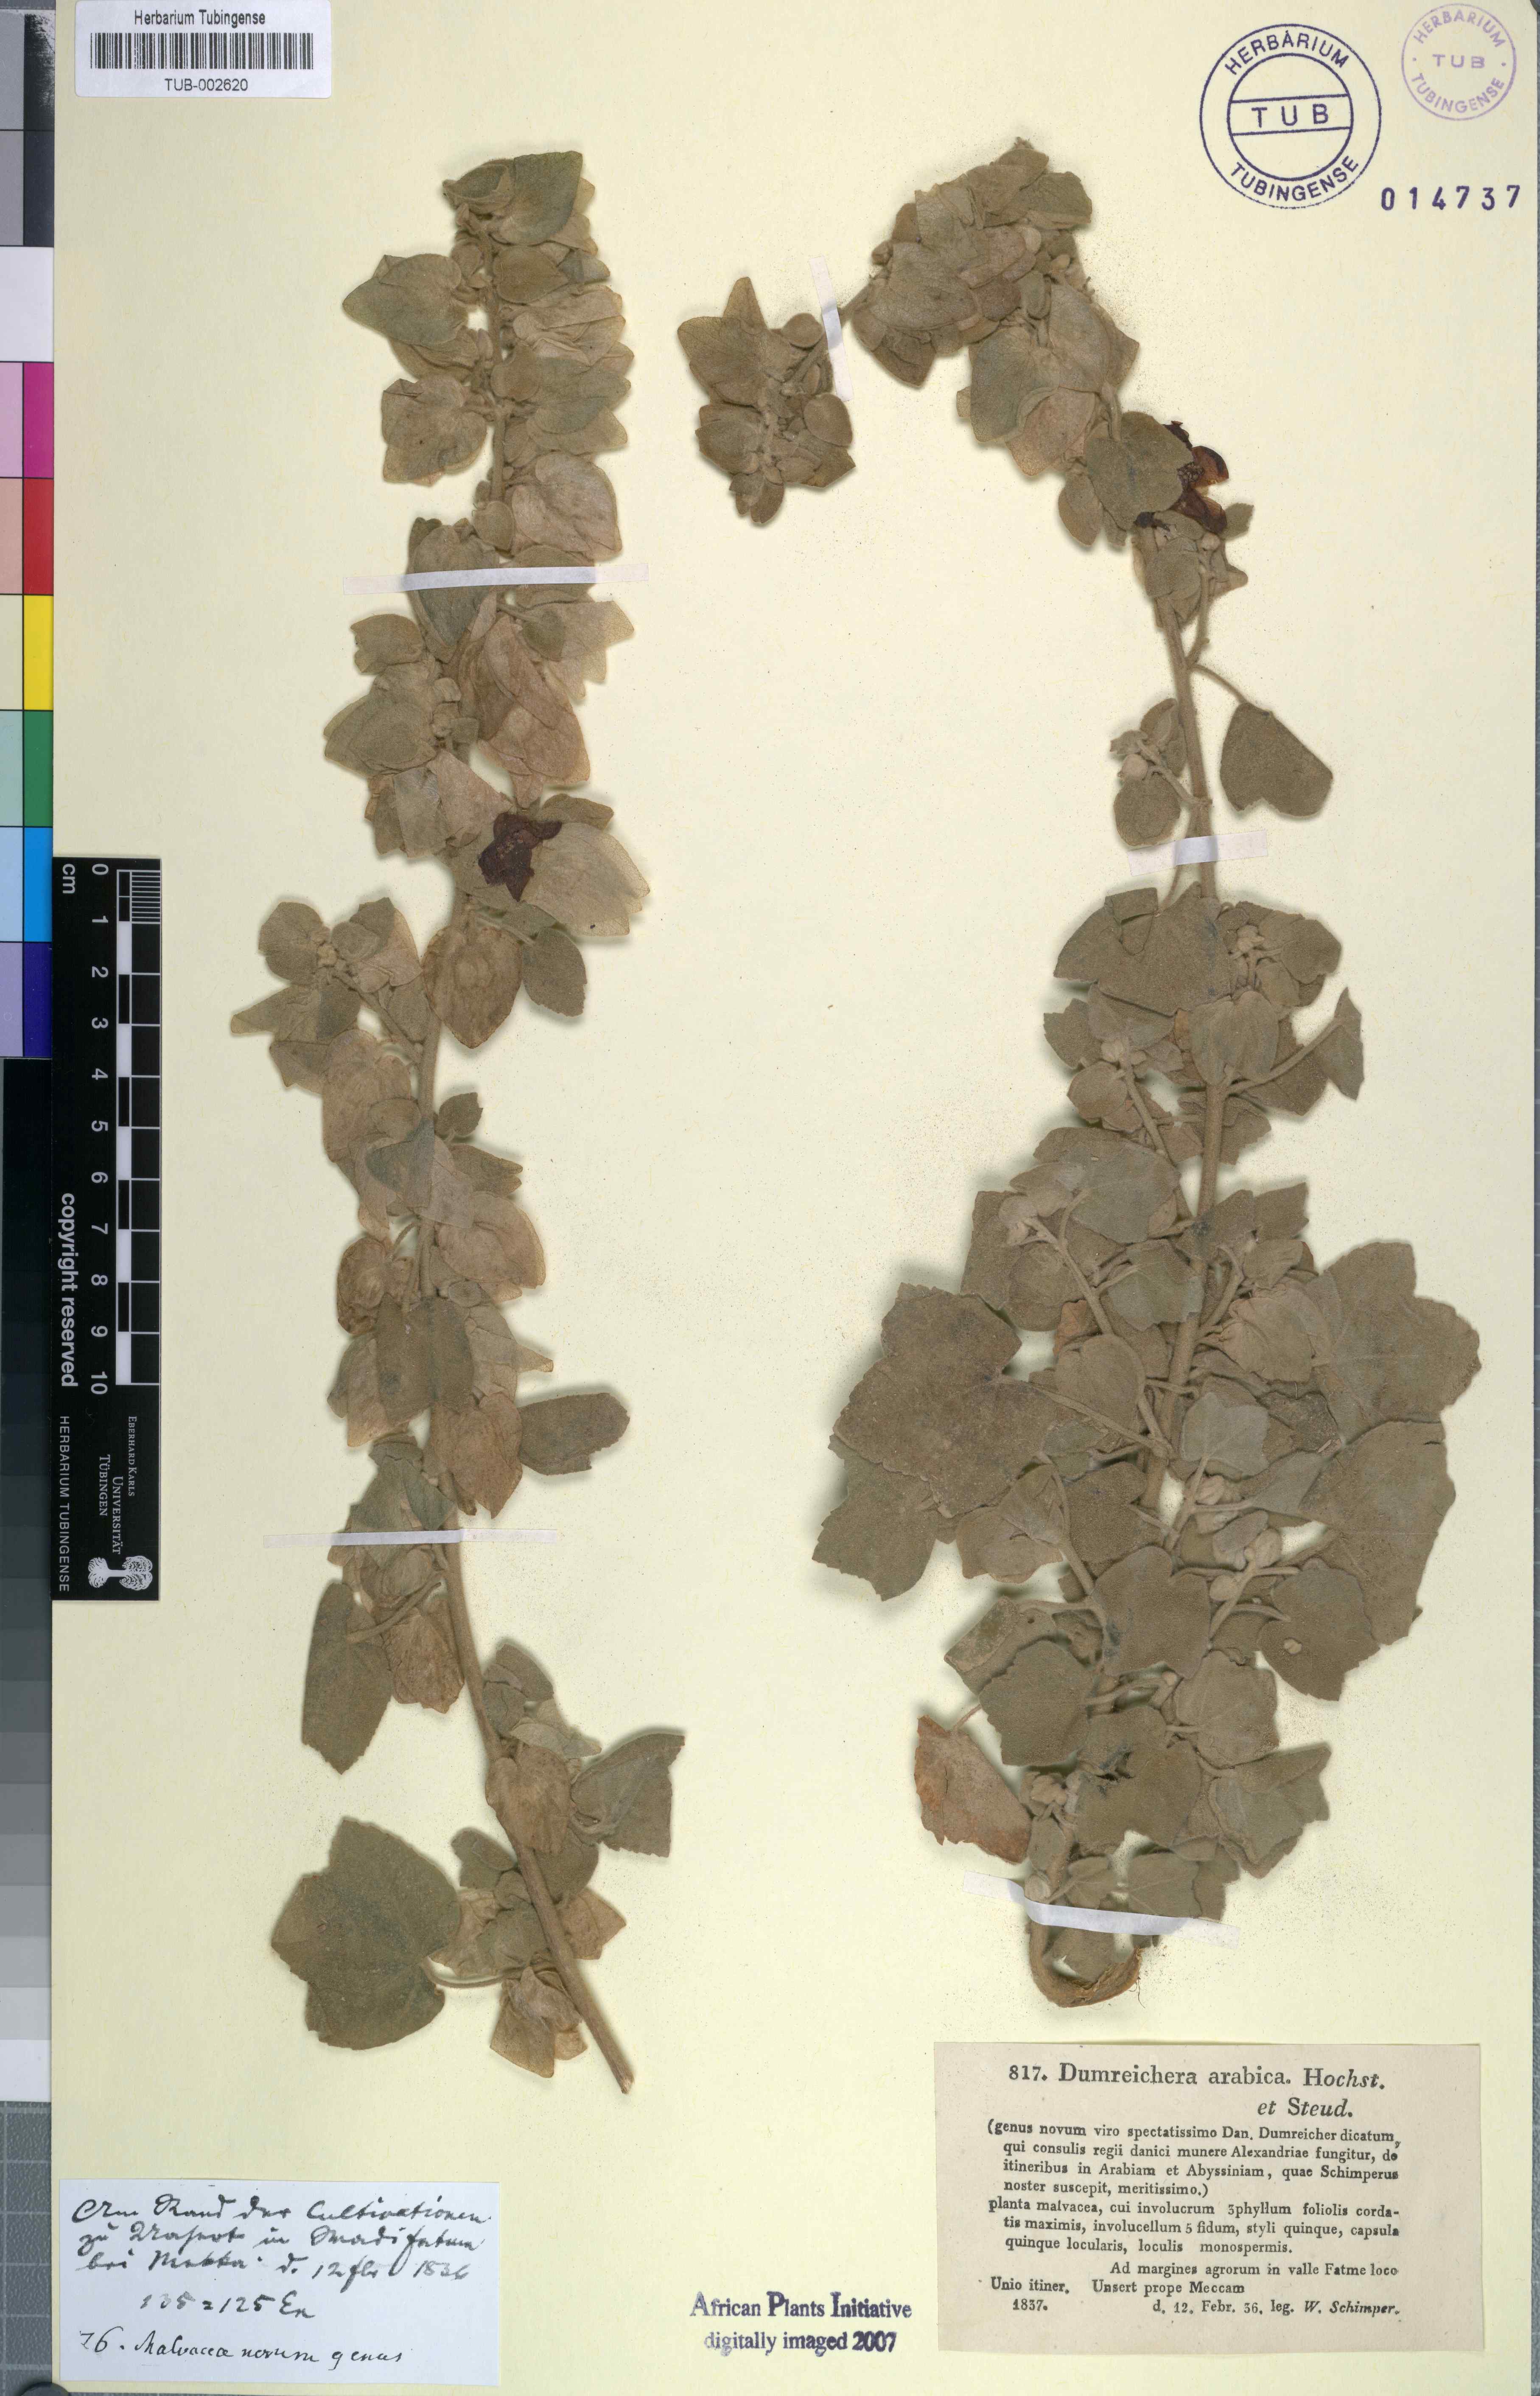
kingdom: Plantae
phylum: Tracheophyta
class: Magnoliopsida
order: Malvales
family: Malvaceae
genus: Senra
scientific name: Senra incana
